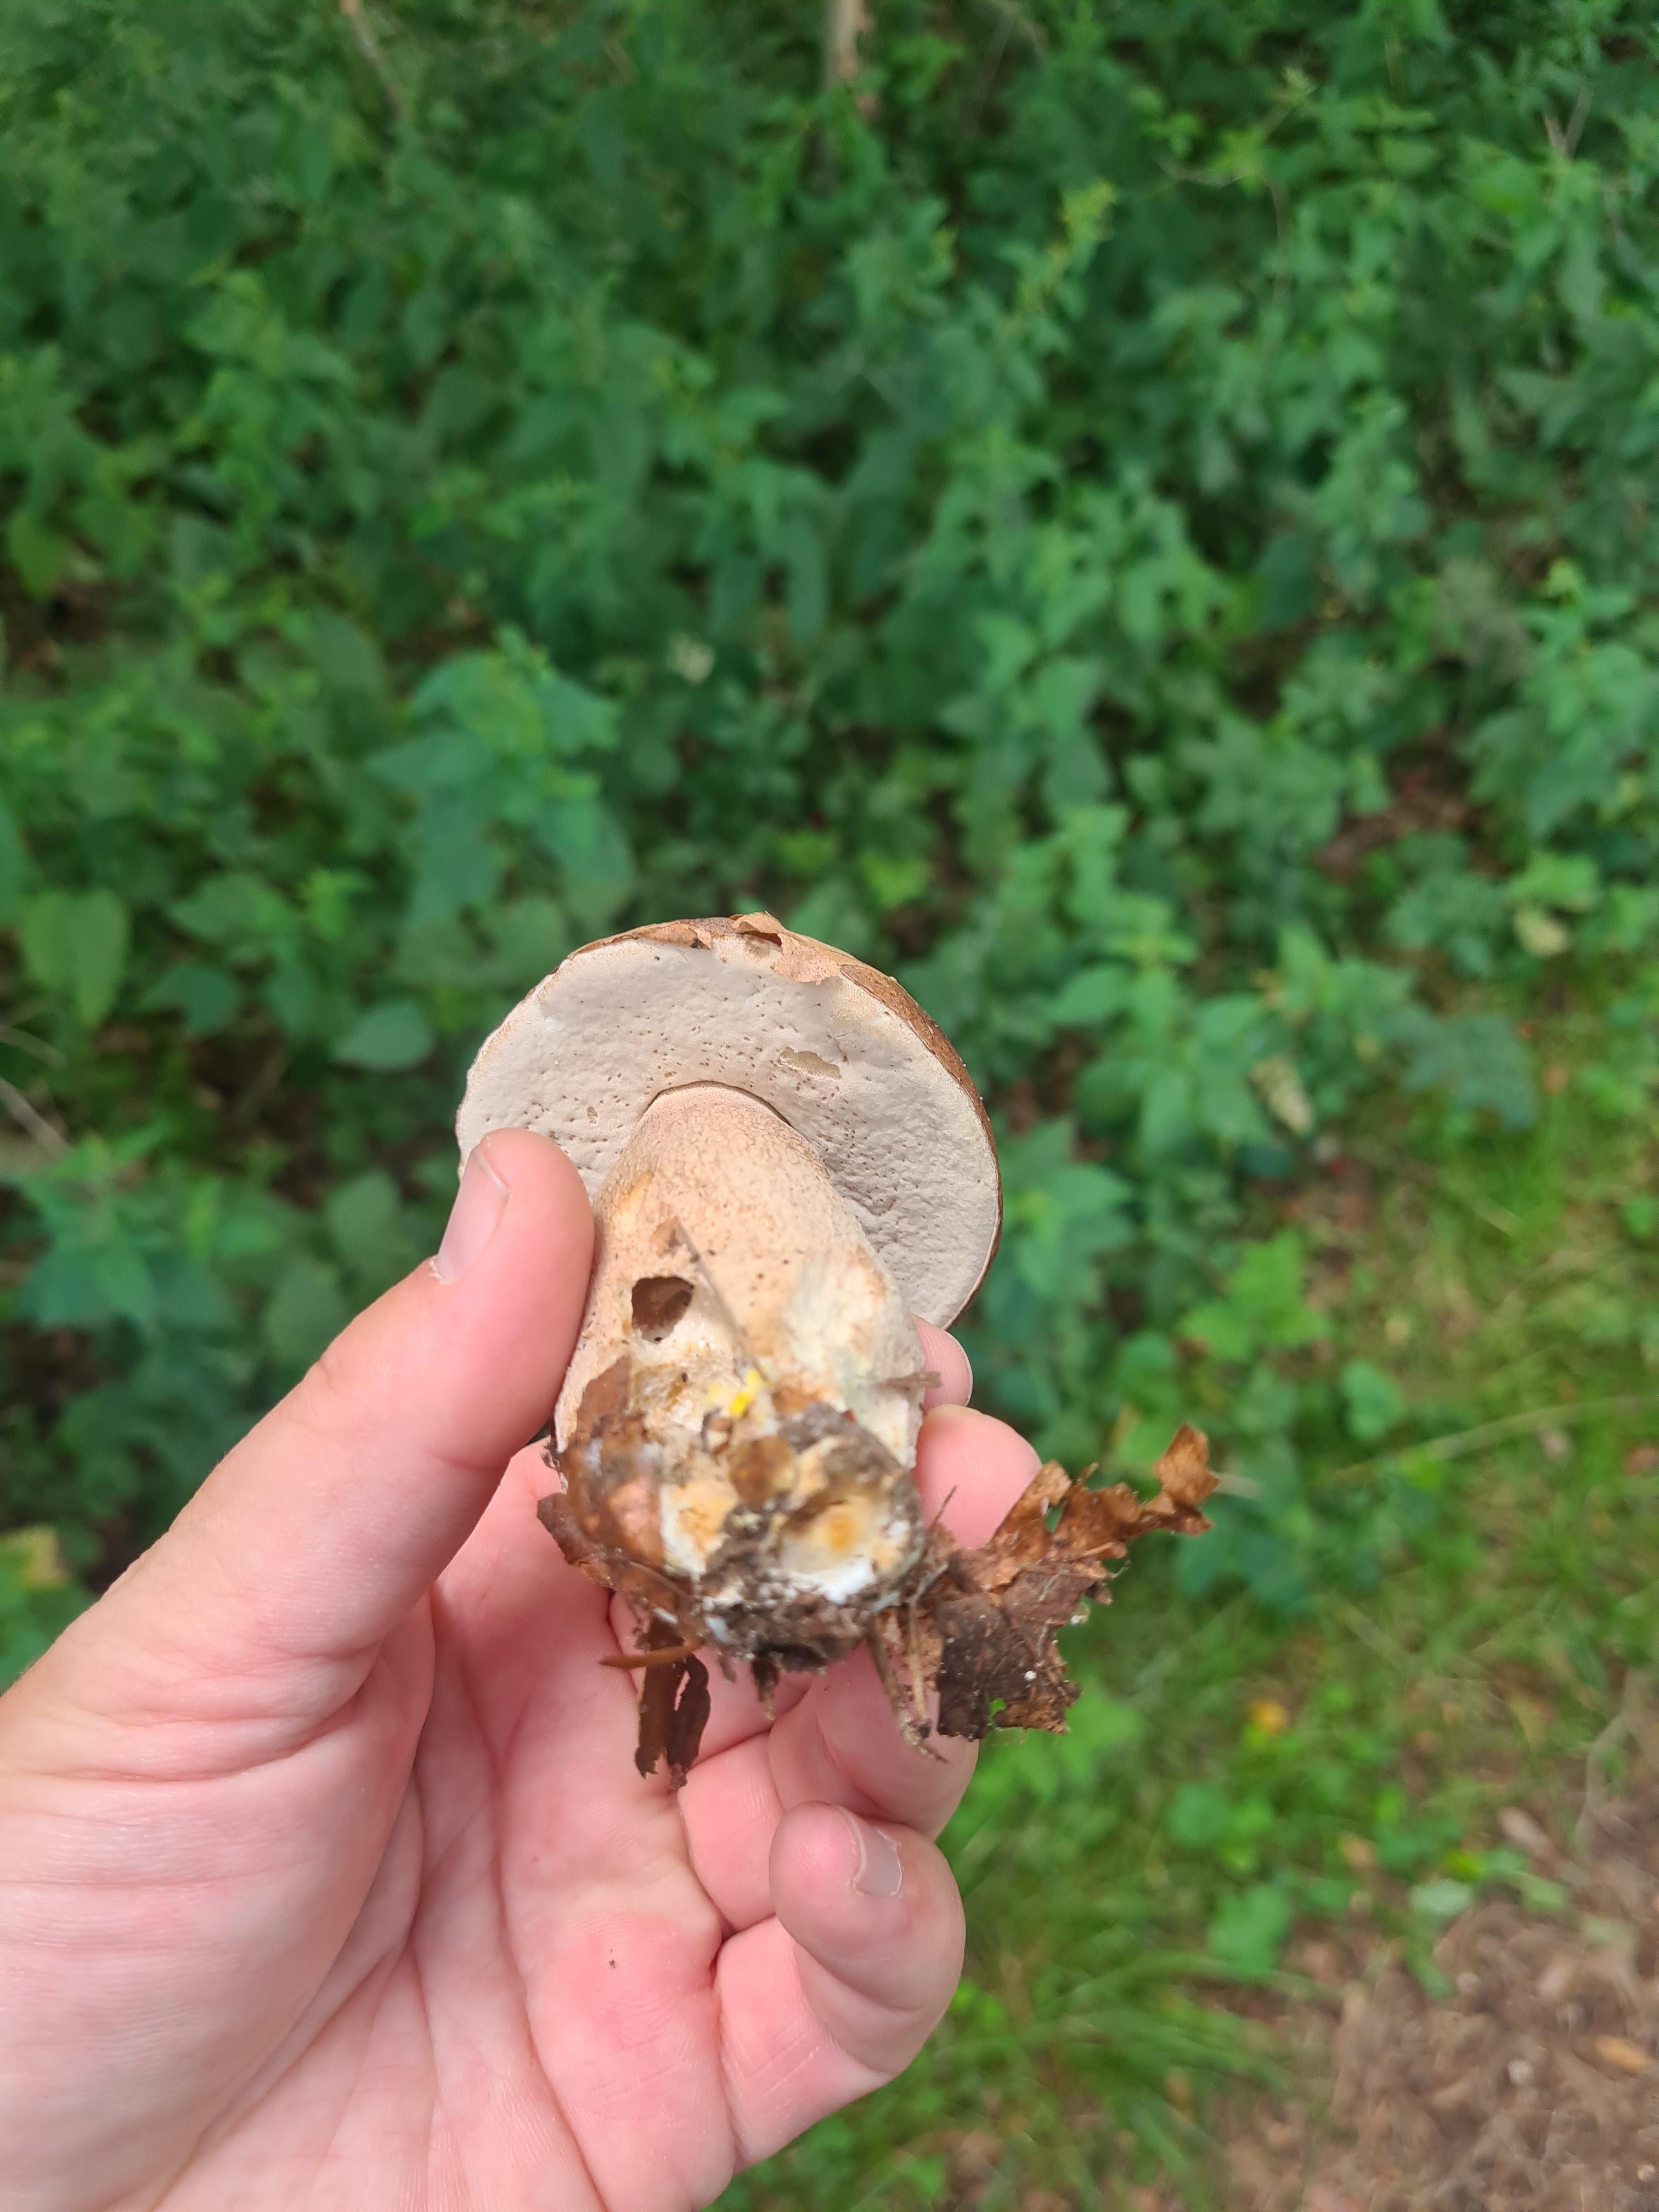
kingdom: Fungi
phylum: Basidiomycota
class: Agaricomycetes
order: Boletales
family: Boletaceae
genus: Boletus
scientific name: Boletus reticulatus
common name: sommer-rørhat
